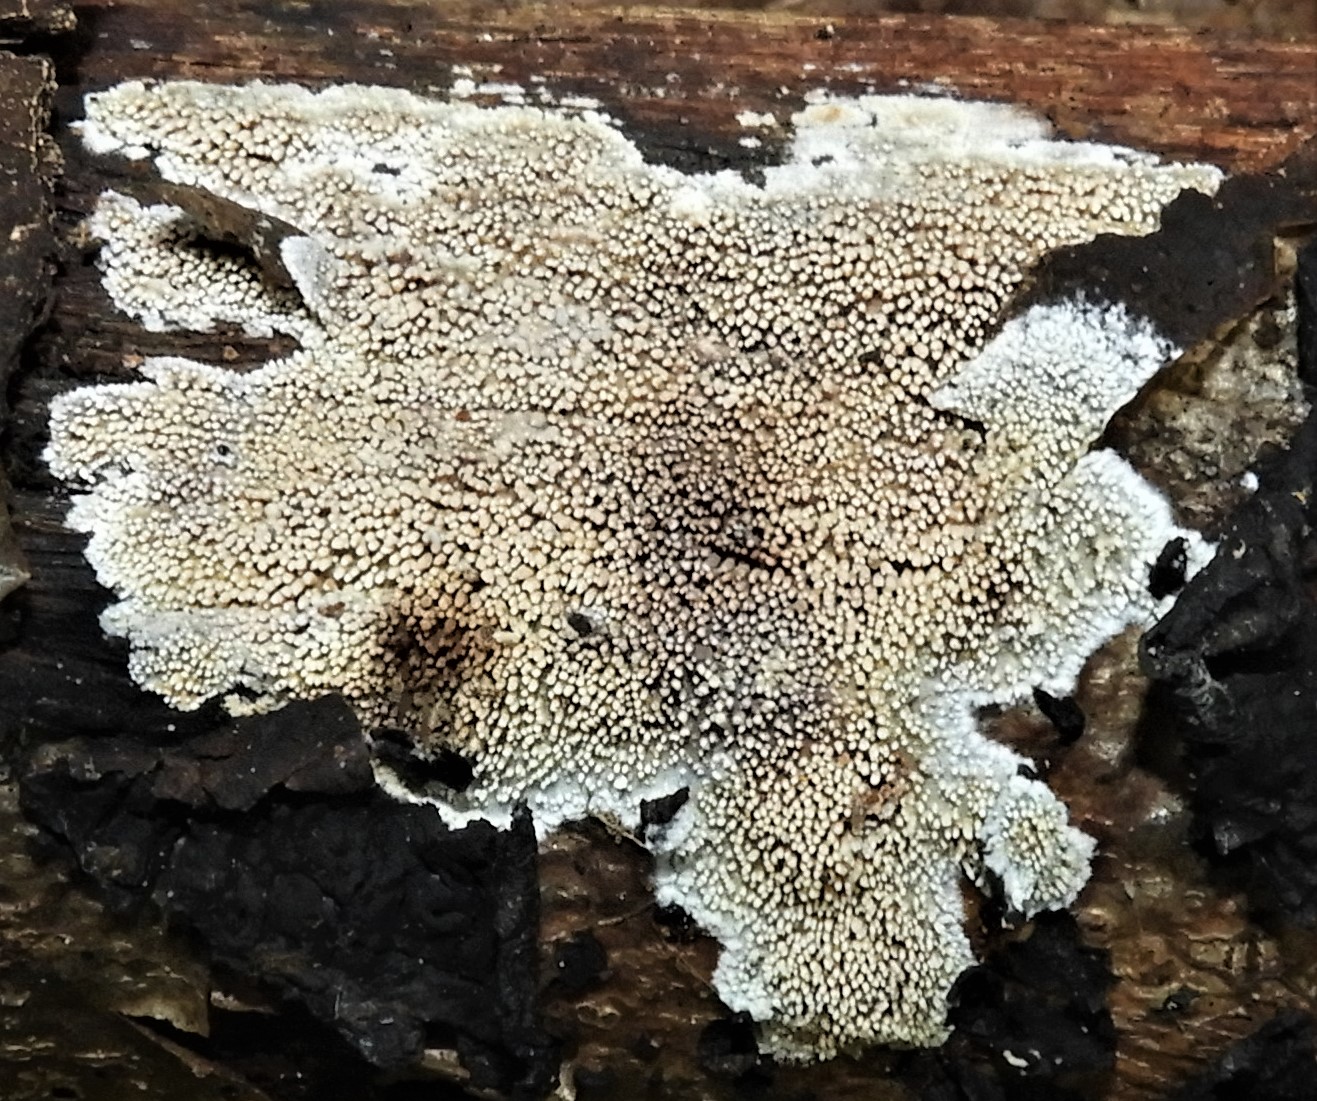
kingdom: Fungi
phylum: Basidiomycota
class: Agaricomycetes
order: Polyporales
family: Meruliaceae
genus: Mycoacia
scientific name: Mycoacia fuscoatra
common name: mørk vokspig
